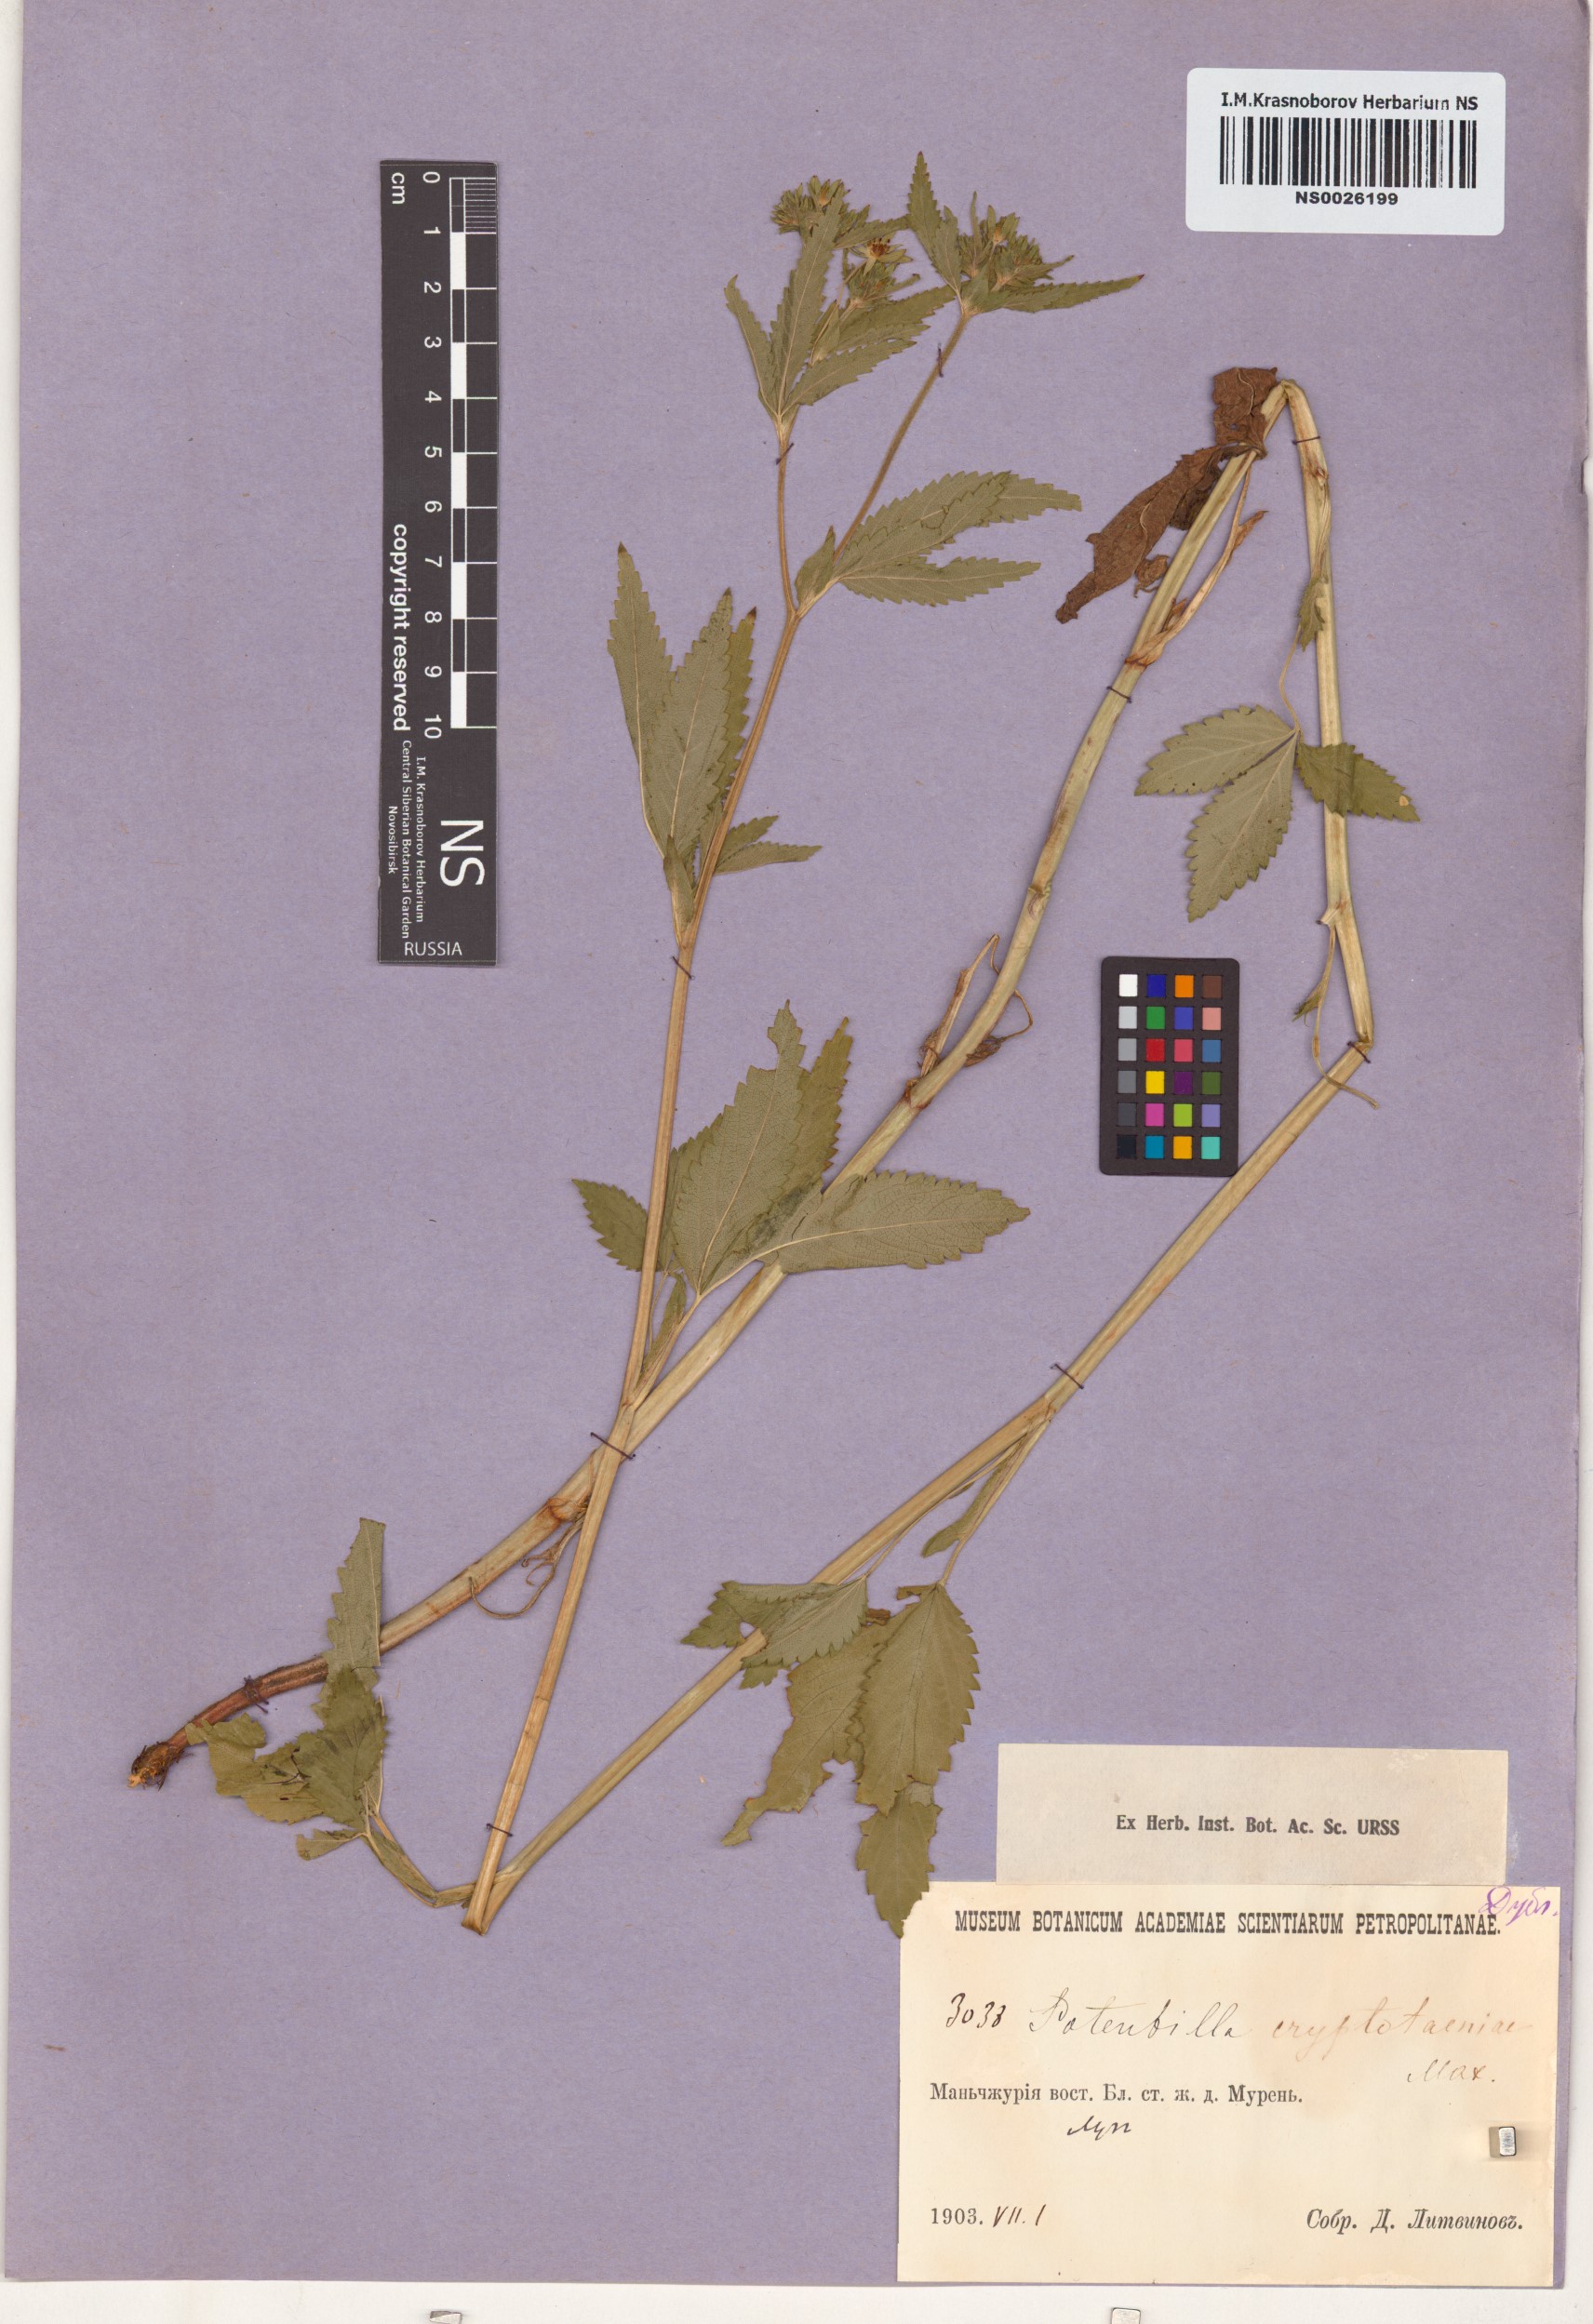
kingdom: Plantae
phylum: Tracheophyta
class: Magnoliopsida
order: Rosales
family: Rosaceae
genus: Potentilla
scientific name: Potentilla cryptotaeniae
